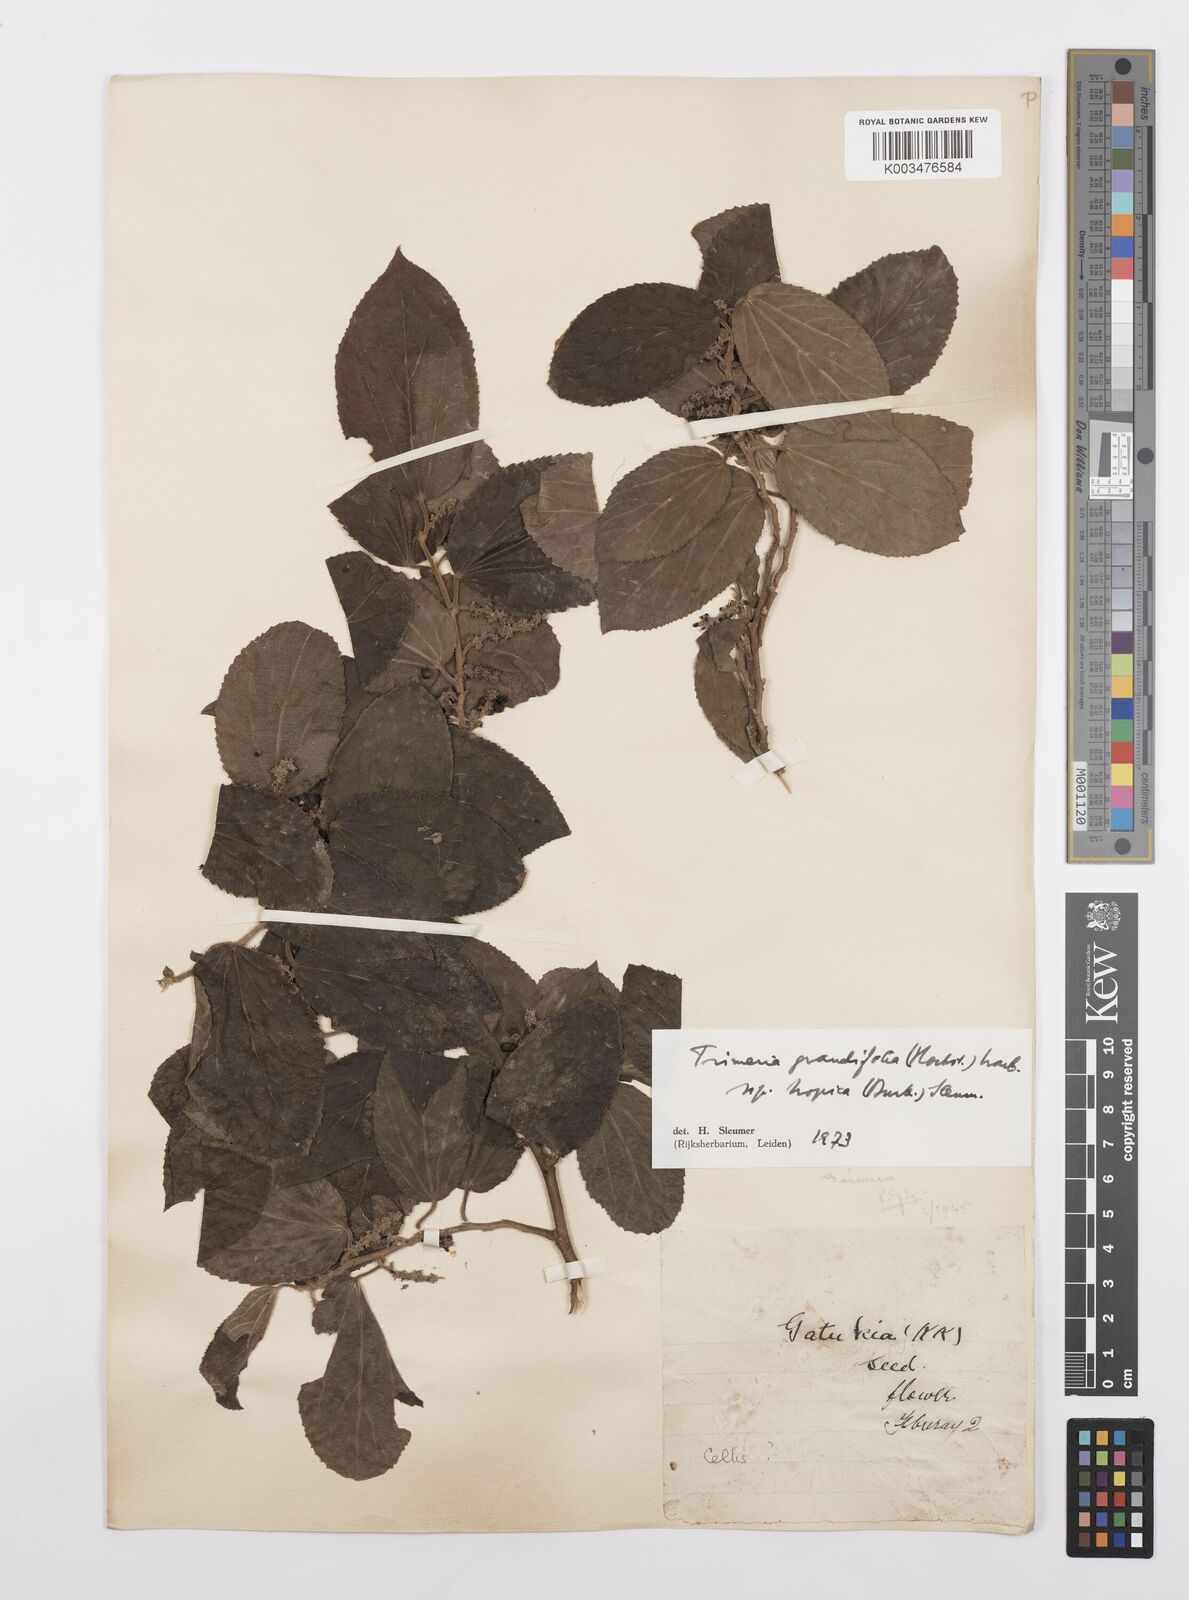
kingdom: Plantae
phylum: Tracheophyta
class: Magnoliopsida
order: Malpighiales
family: Salicaceae
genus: Trimeria
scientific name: Trimeria grandifolia
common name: Wild mulberry
